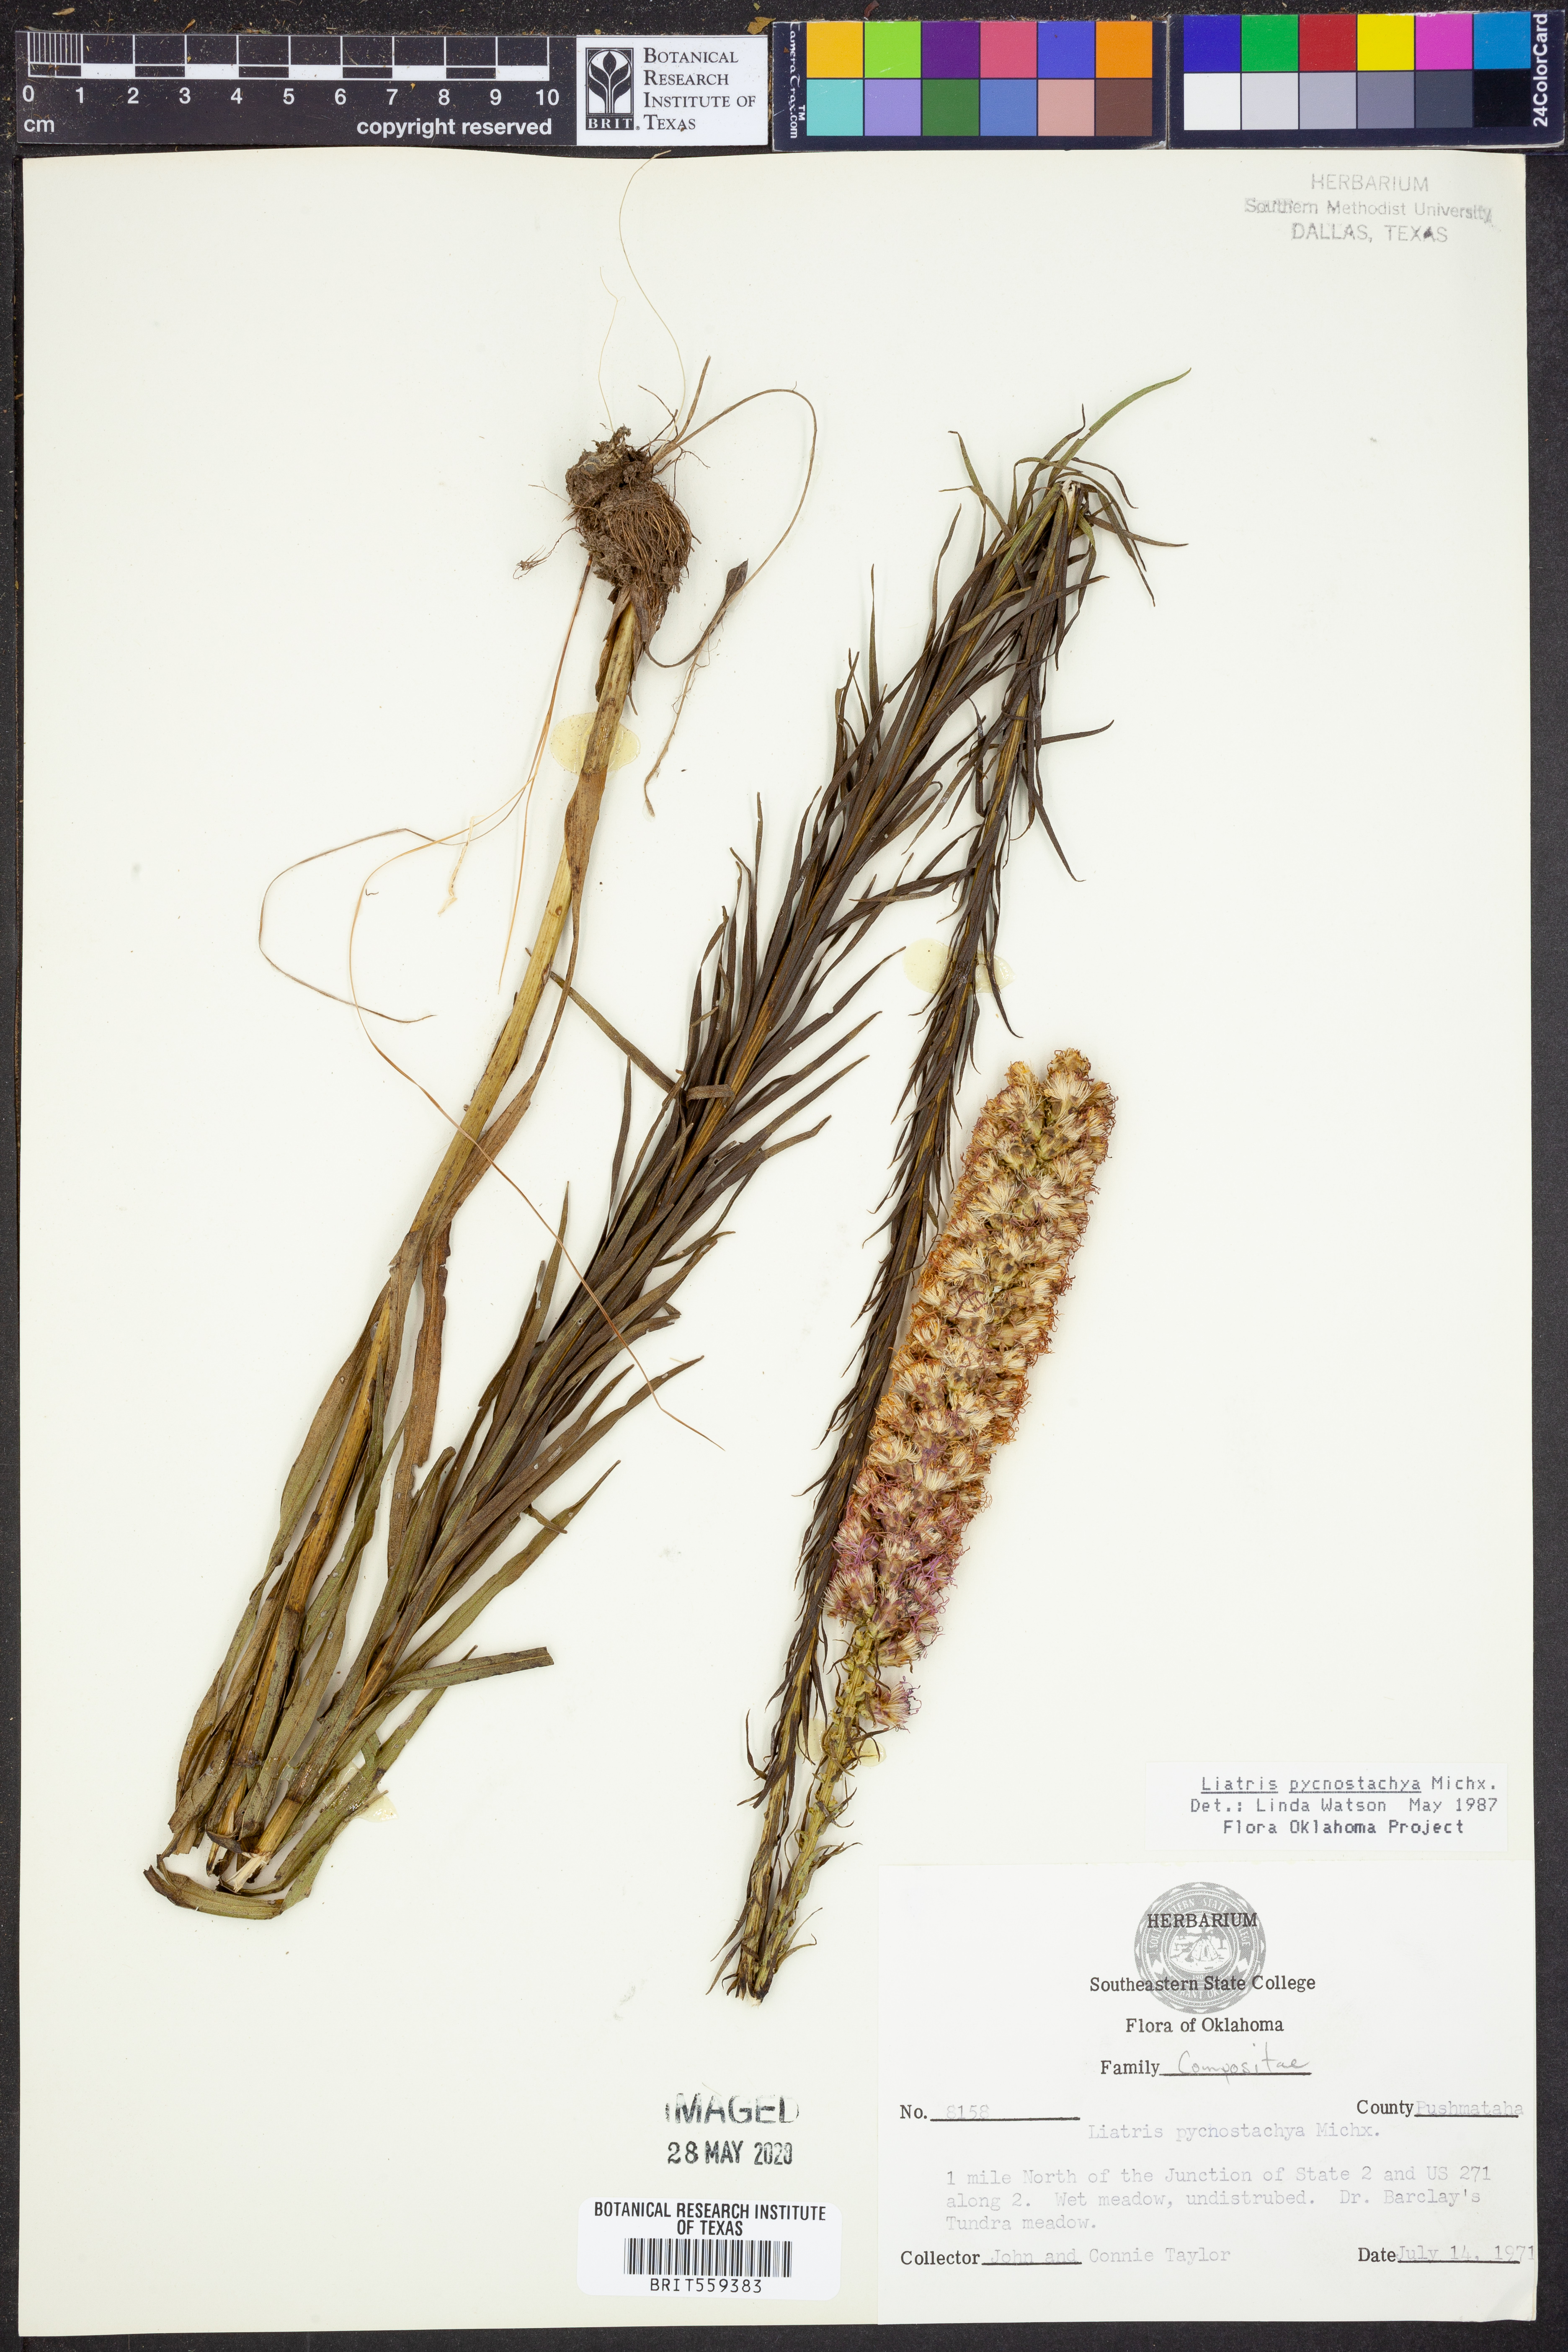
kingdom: Plantae
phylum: Tracheophyta
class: Magnoliopsida
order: Asterales
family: Asteraceae
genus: Liatris
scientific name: Liatris pycnostachya
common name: Cattail gayfeather
